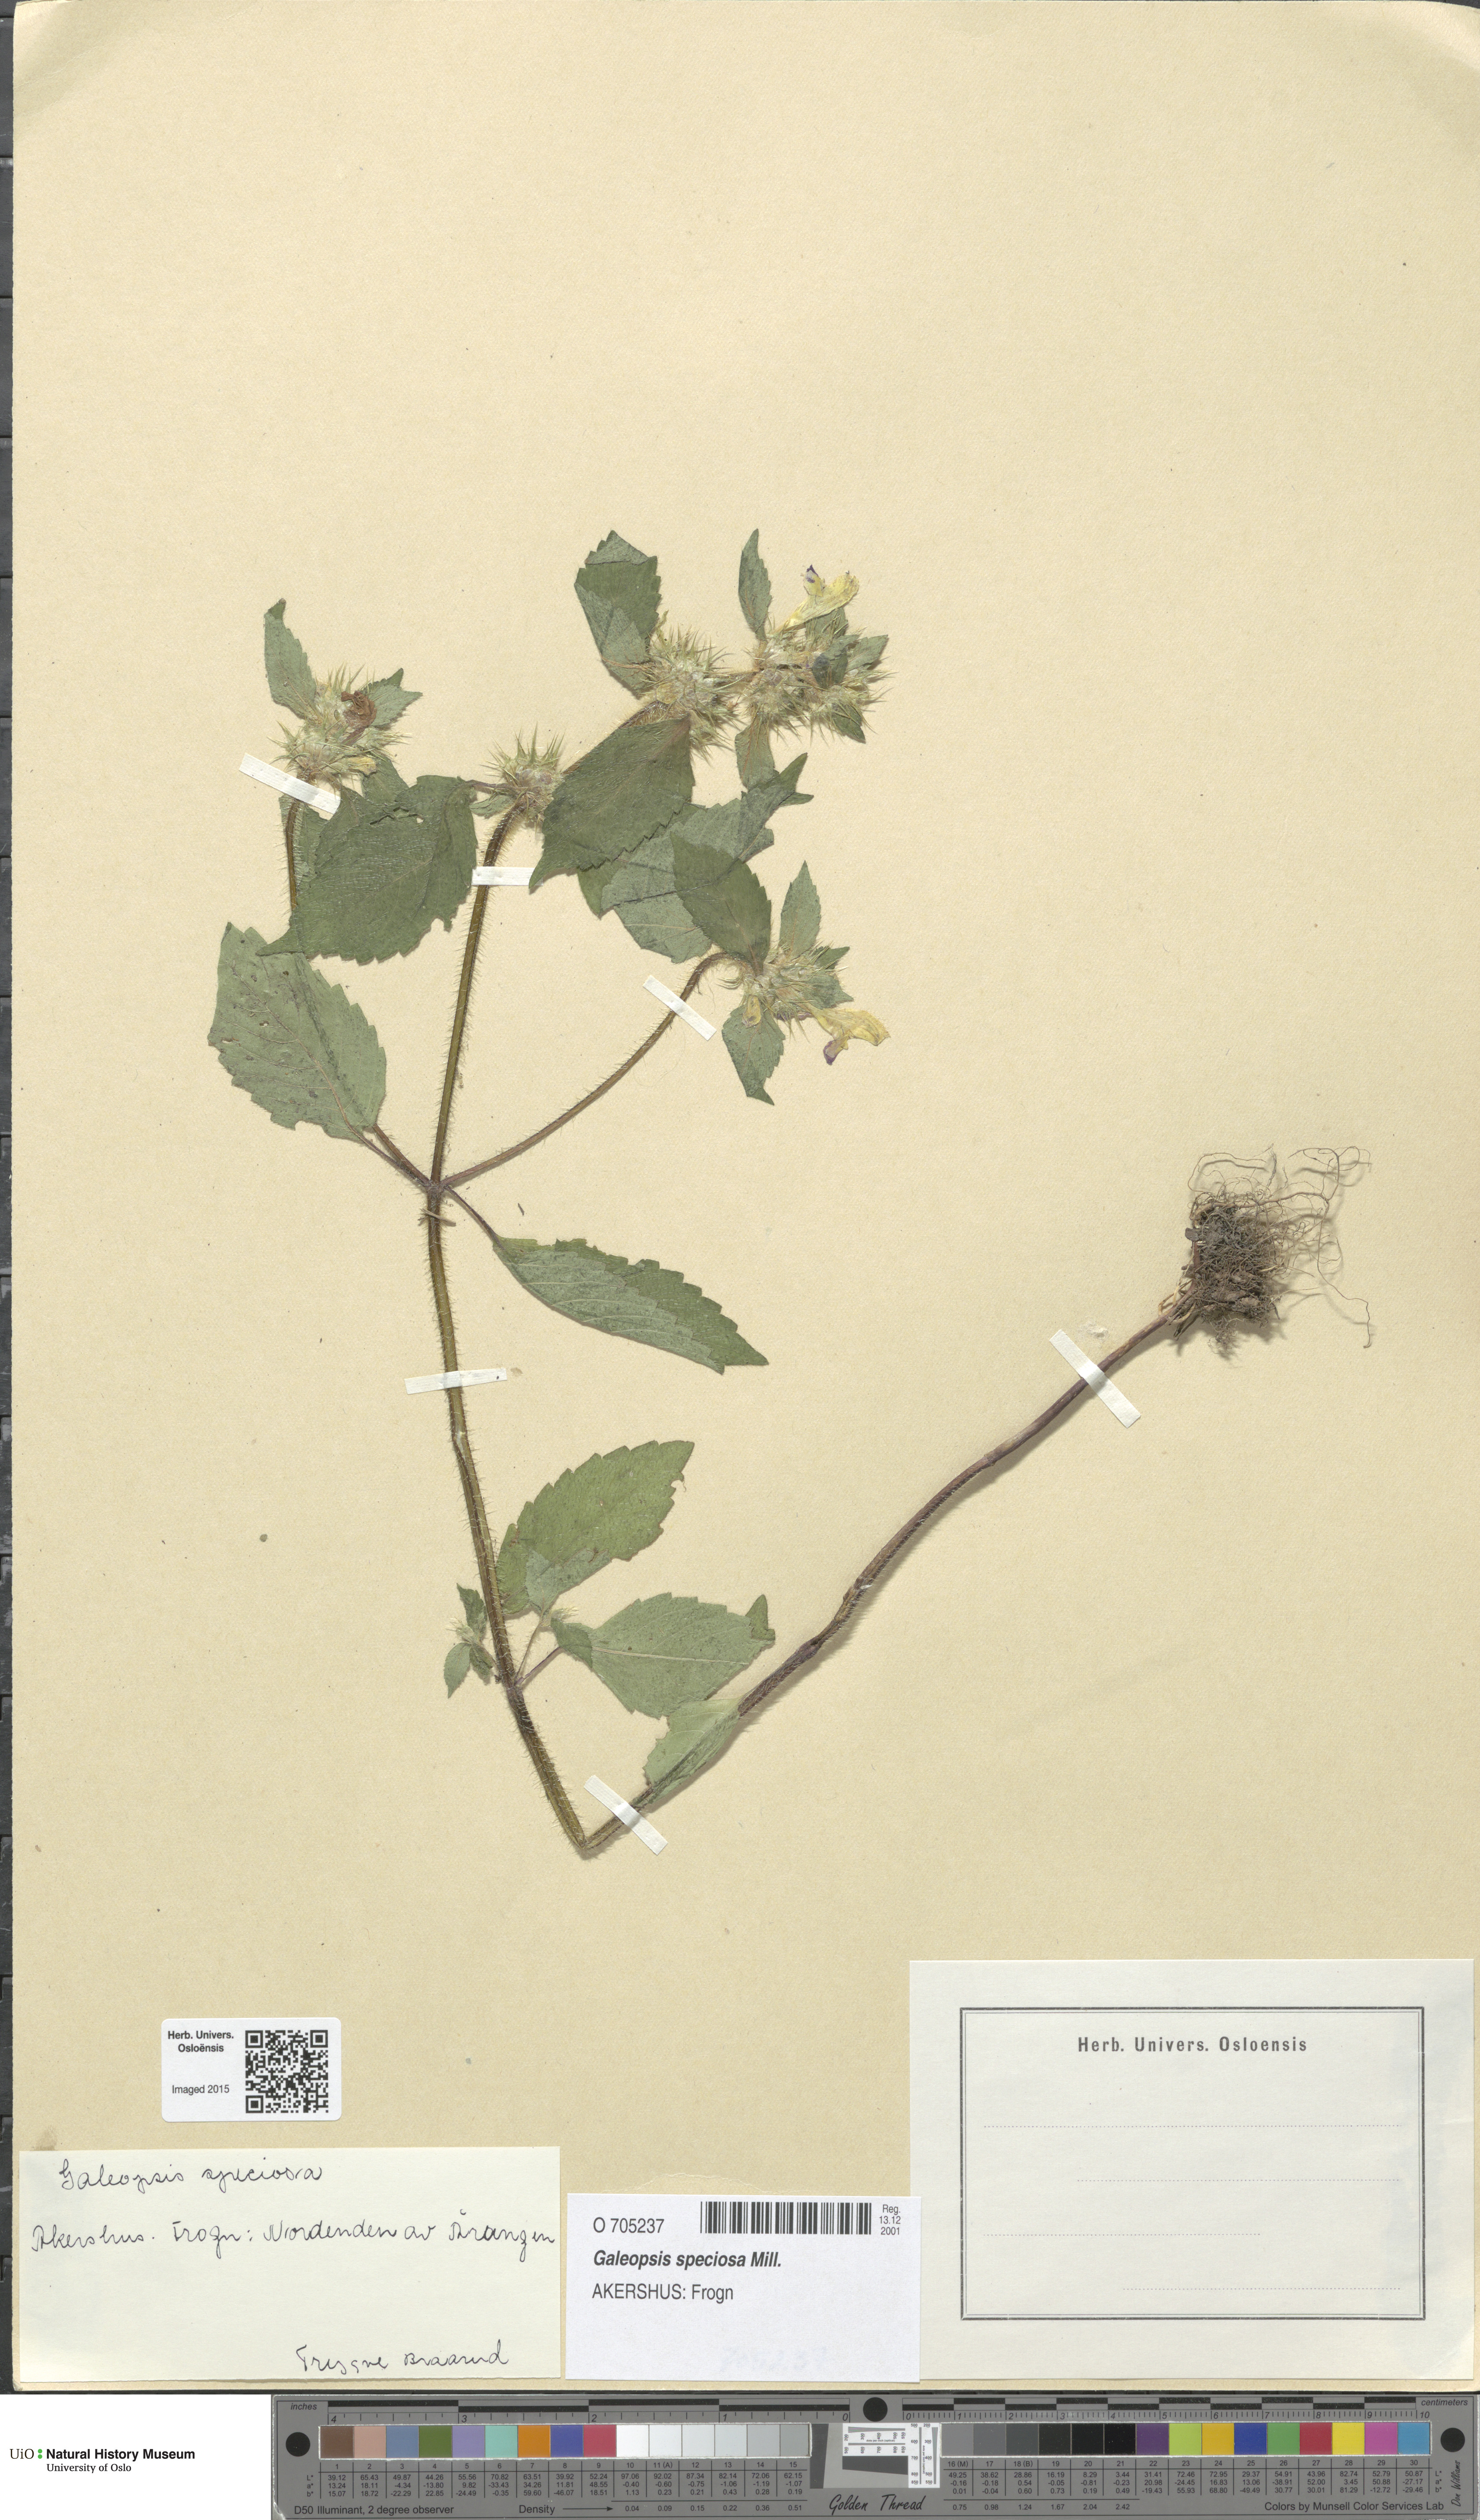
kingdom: Plantae
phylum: Tracheophyta
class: Magnoliopsida
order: Lamiales
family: Lamiaceae
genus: Galeopsis
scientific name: Galeopsis speciosa
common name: Large-flowered hemp-nettle
